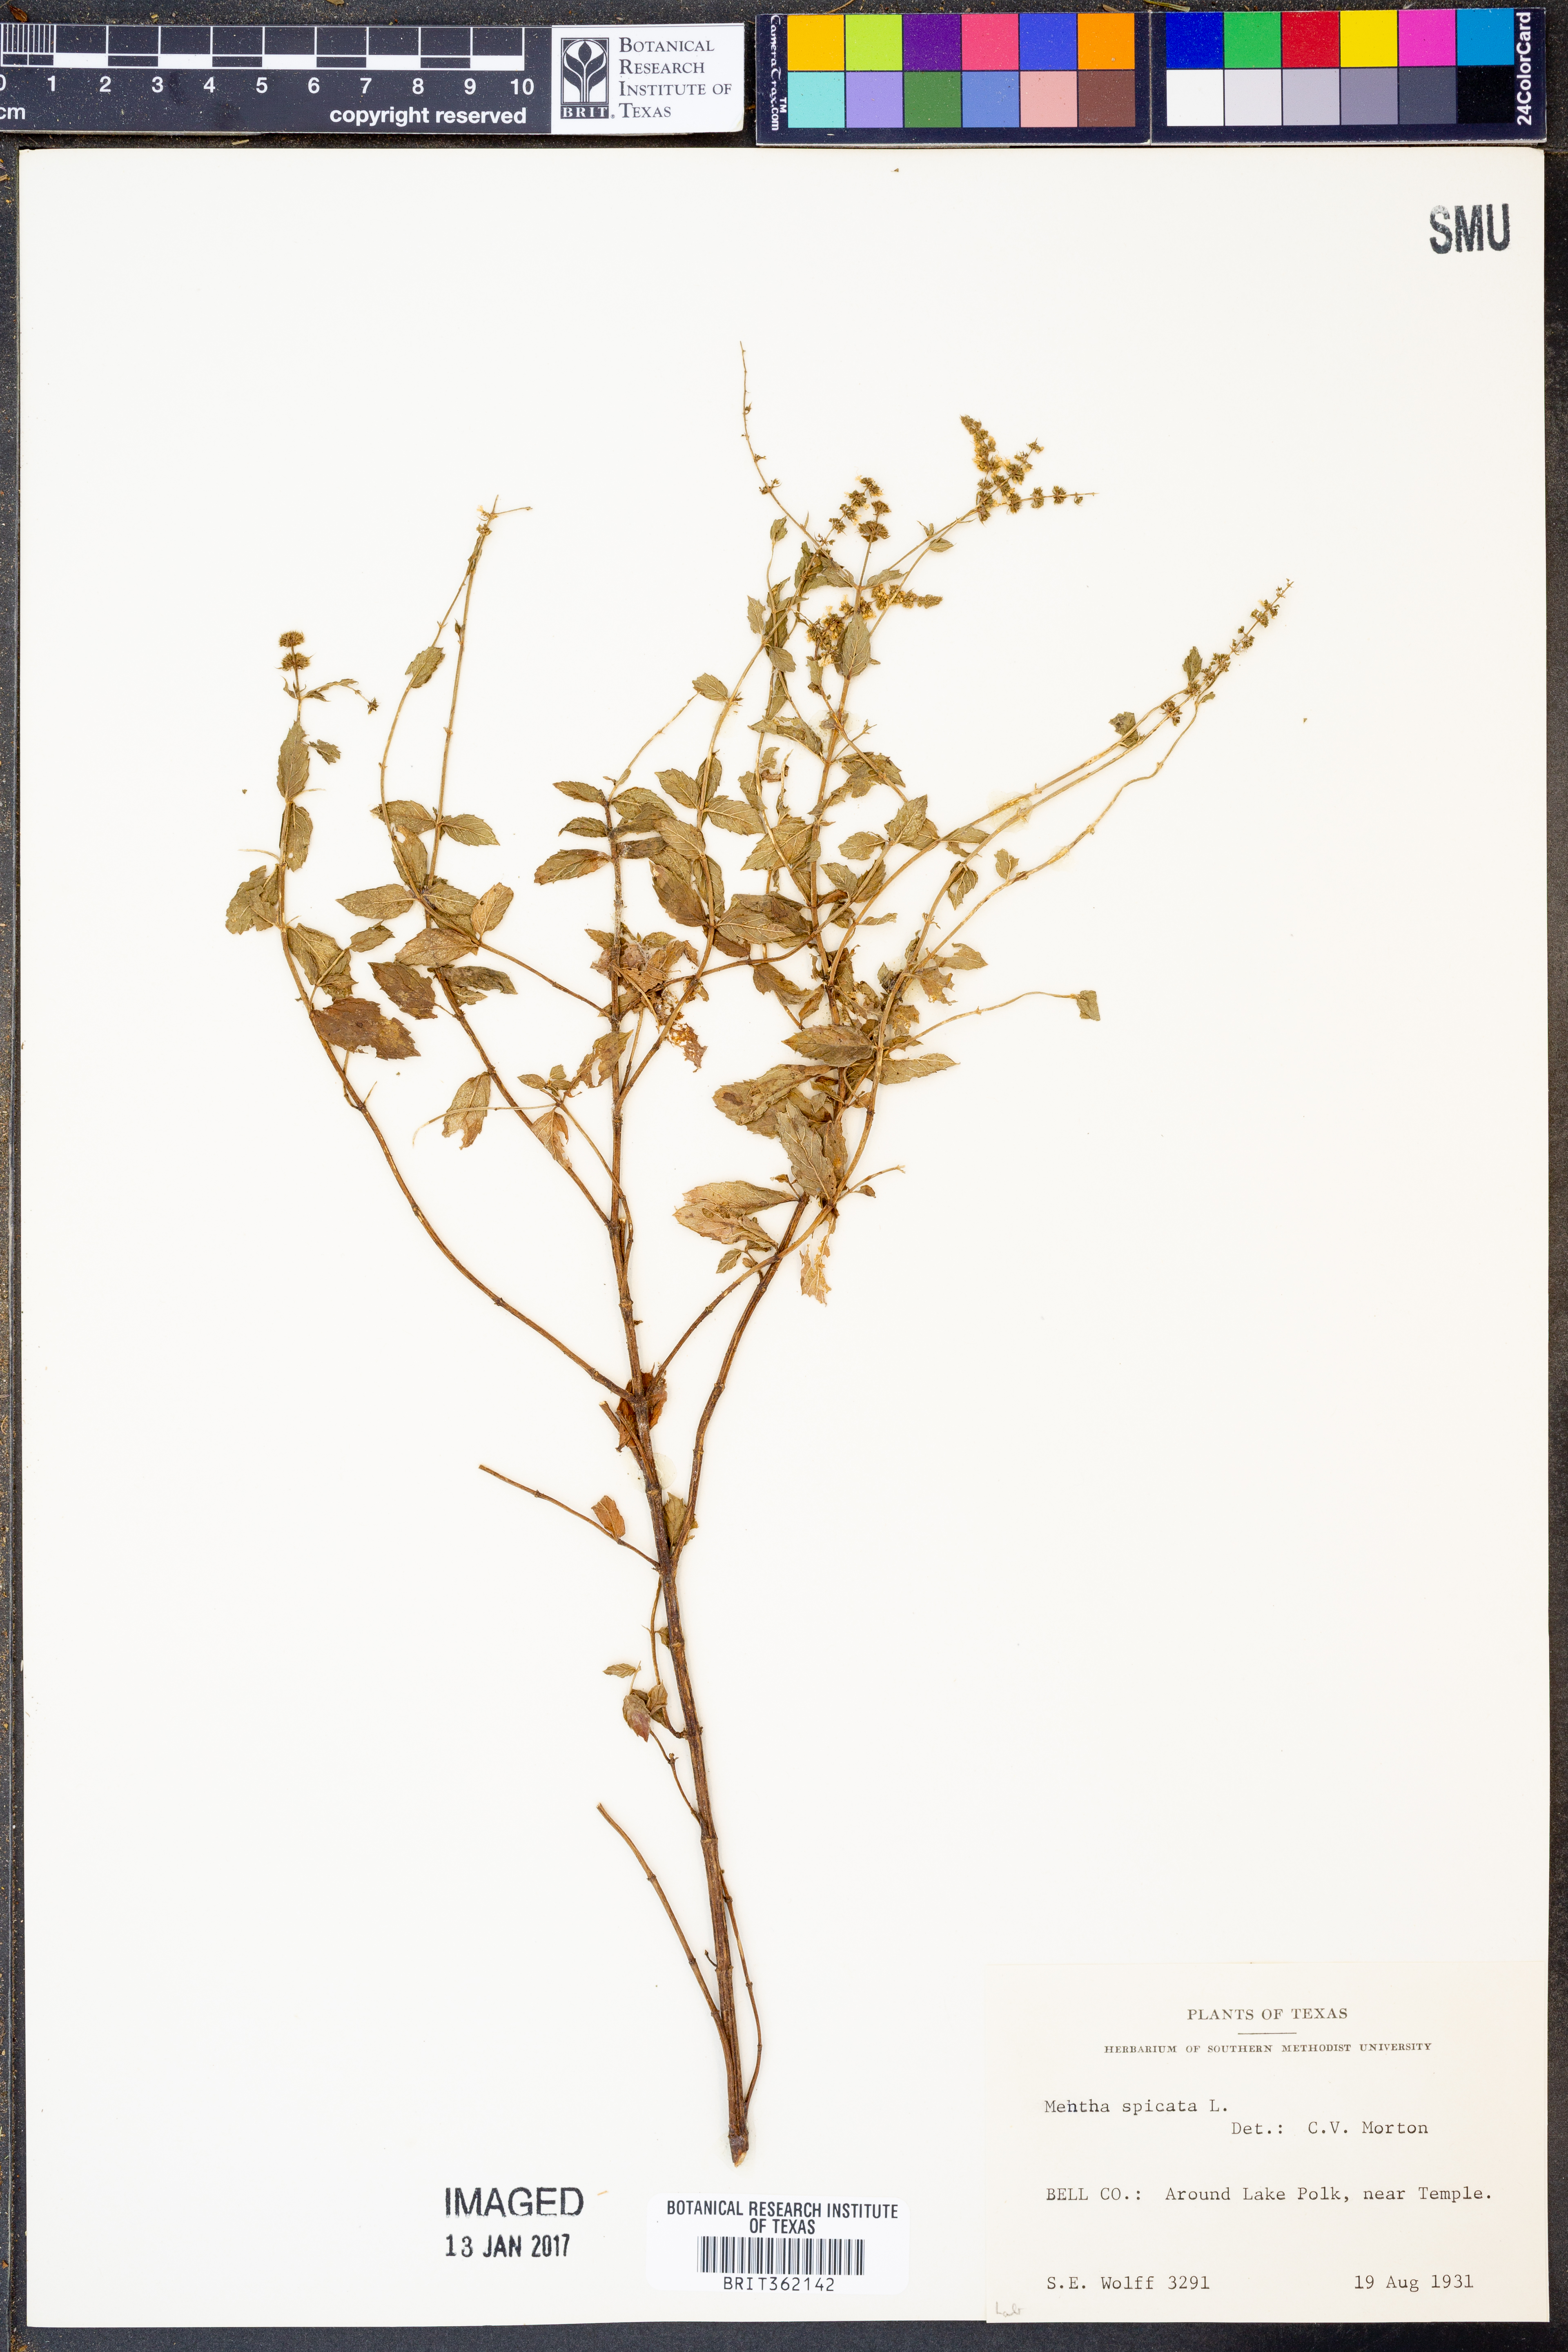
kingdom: Plantae
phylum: Tracheophyta
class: Magnoliopsida
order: Lamiales
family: Lamiaceae
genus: Mentha
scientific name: Mentha spicata
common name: Spearmint
